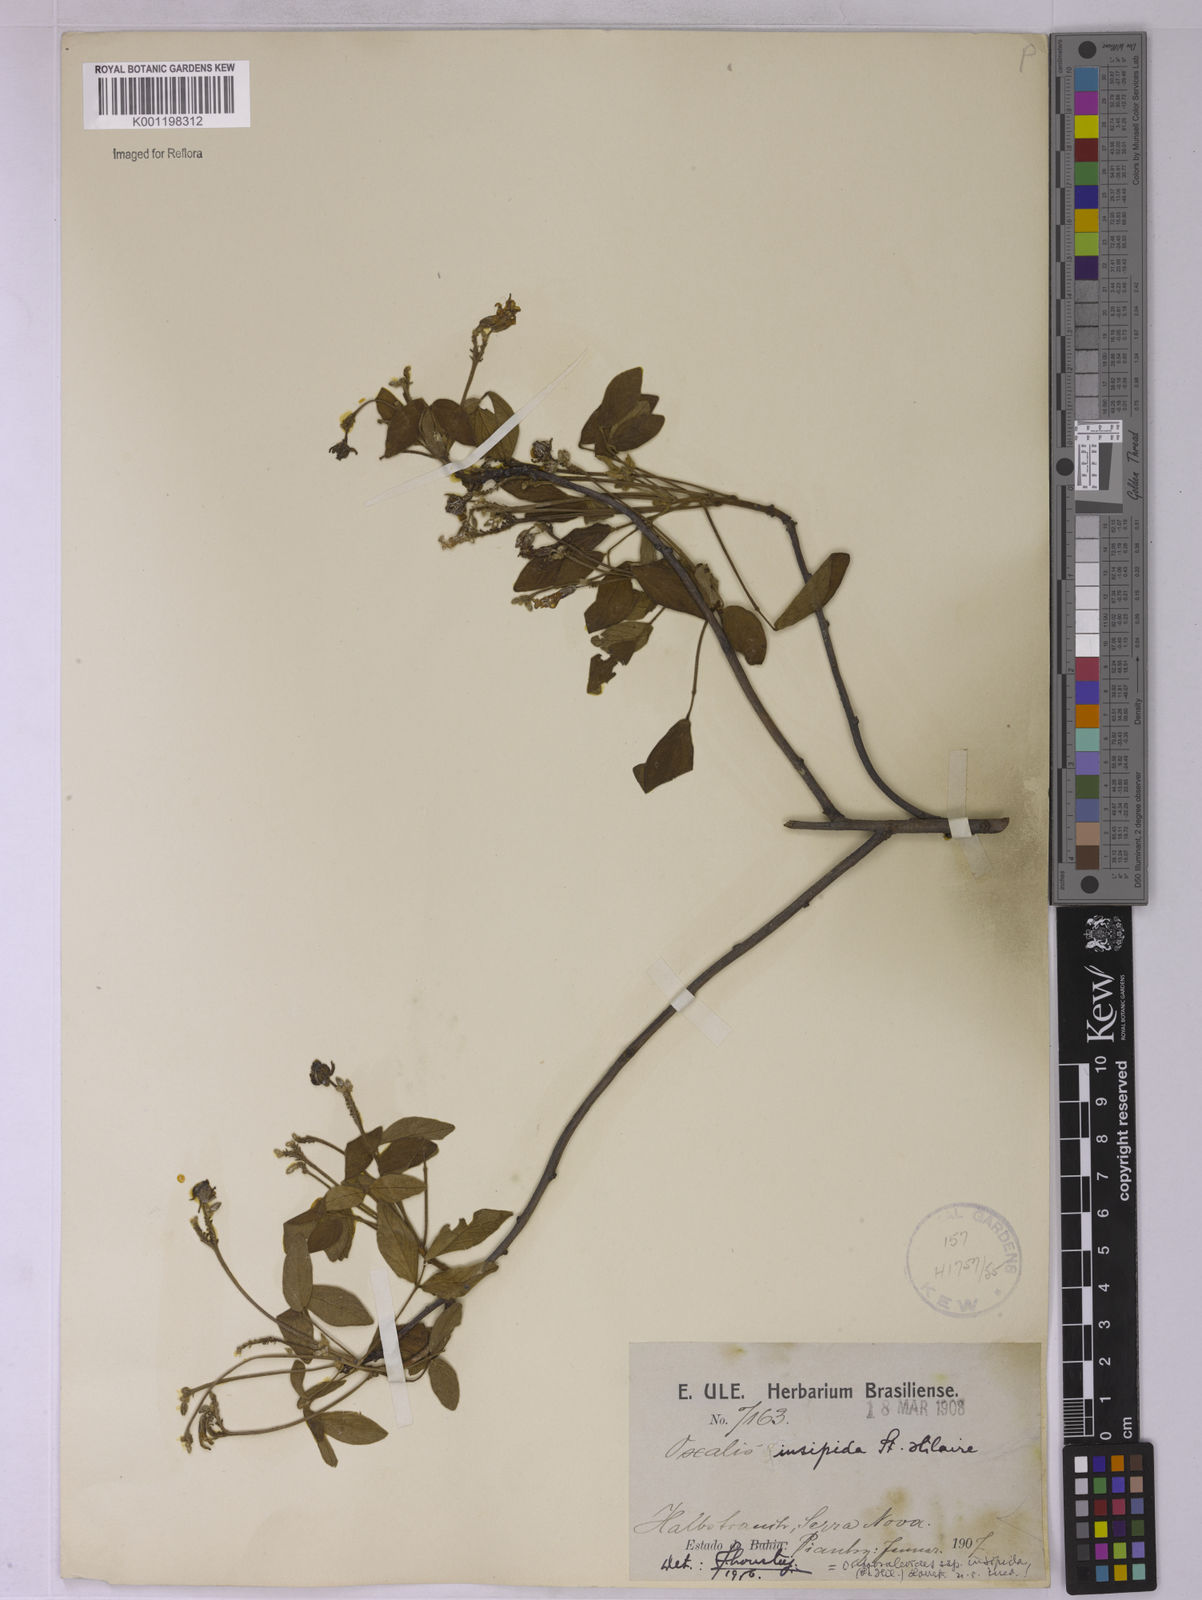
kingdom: Plantae
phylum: Tracheophyta
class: Magnoliopsida
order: Oxalidales
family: Oxalidaceae
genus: Oxalis
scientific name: Oxalis psoraleoides
